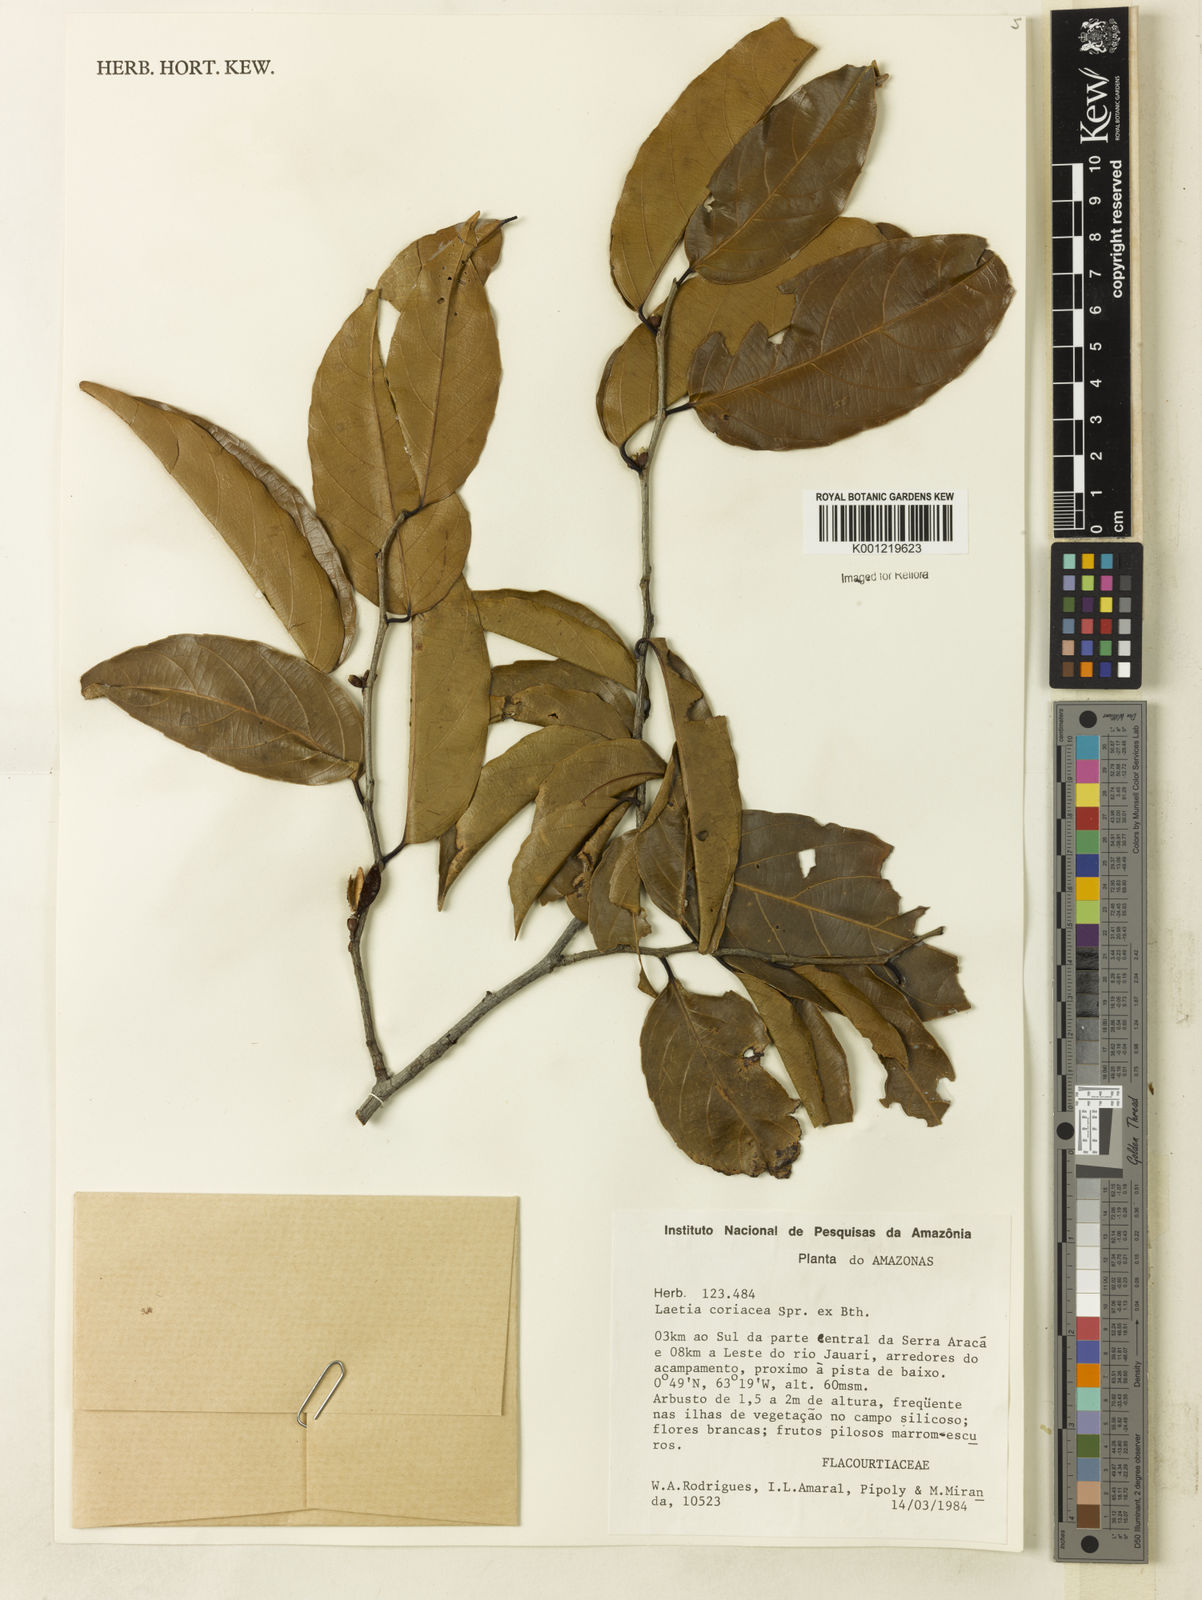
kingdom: Plantae
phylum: Tracheophyta
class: Magnoliopsida
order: Malpighiales
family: Salicaceae
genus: Irenodendron
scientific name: Irenodendron coriaceum
